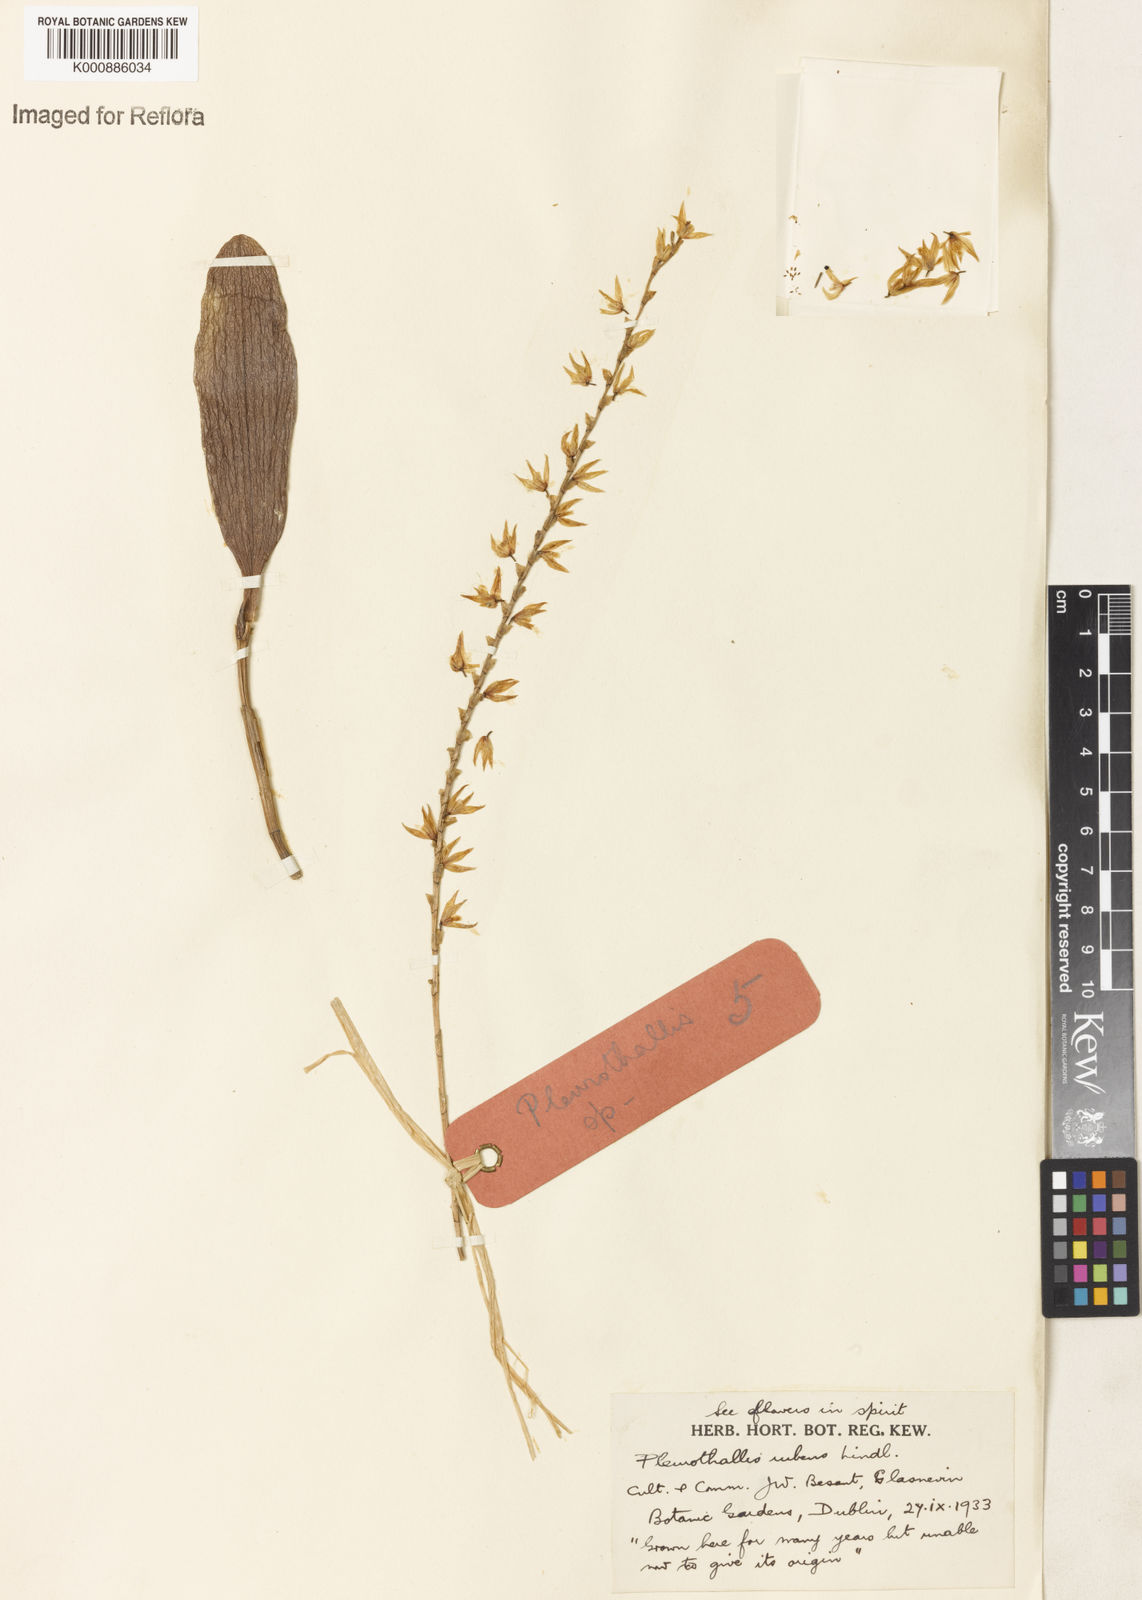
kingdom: Plantae
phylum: Tracheophyta
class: Liliopsida
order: Asparagales
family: Orchidaceae
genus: Stelis
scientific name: Stelis montserratii
